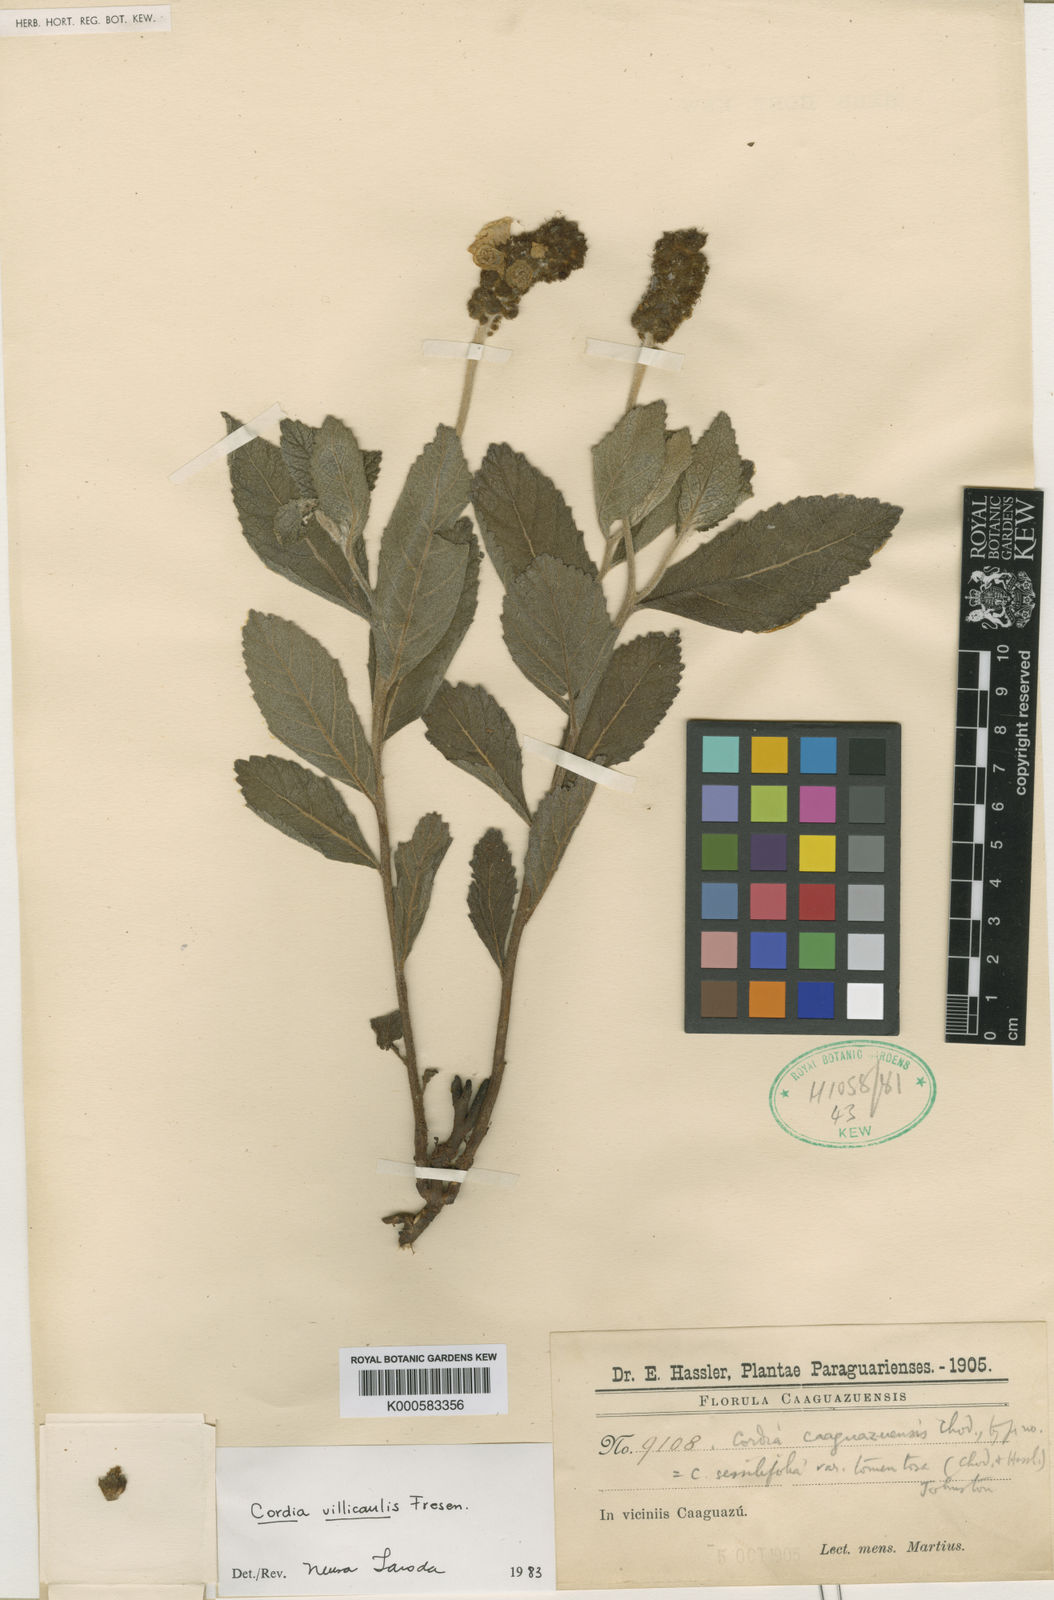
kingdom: Plantae
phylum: Tracheophyta
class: Magnoliopsida
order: Boraginales
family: Cordiaceae
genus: Varronia
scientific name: Varronia sessilifolia
